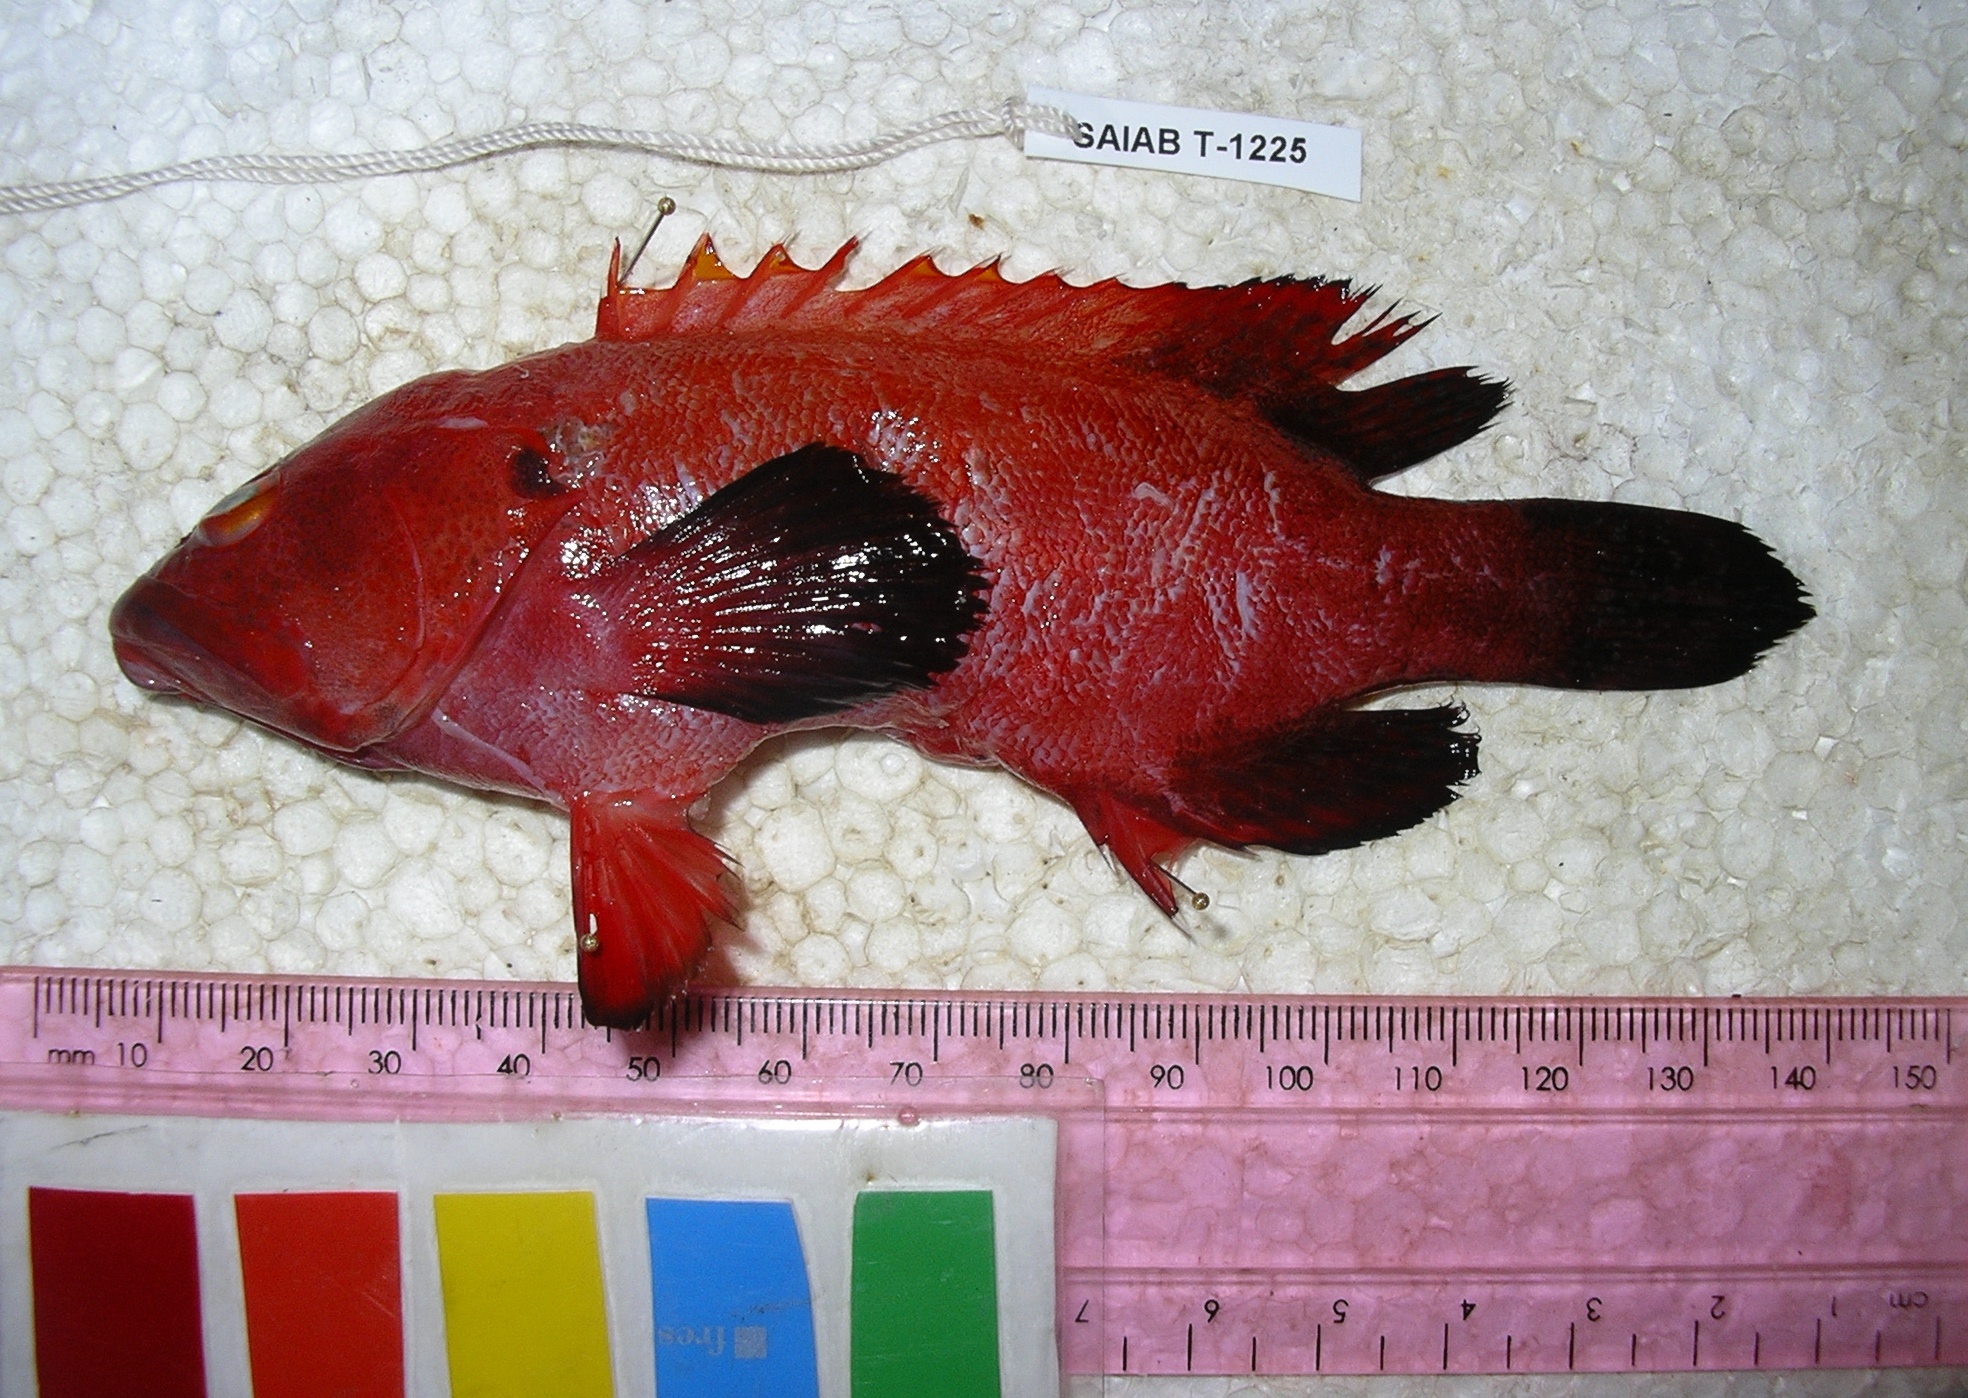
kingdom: Animalia
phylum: Chordata
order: Perciformes
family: Serranidae
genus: Cephalopholis
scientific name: Cephalopholis nigripinnis
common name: Duskyfin hind
